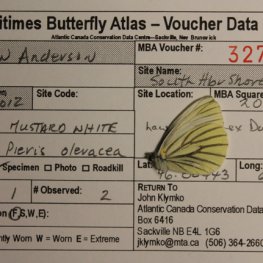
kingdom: Animalia
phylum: Arthropoda
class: Insecta
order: Lepidoptera
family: Pieridae
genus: Pieris
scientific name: Pieris oleracea
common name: Mustard White
